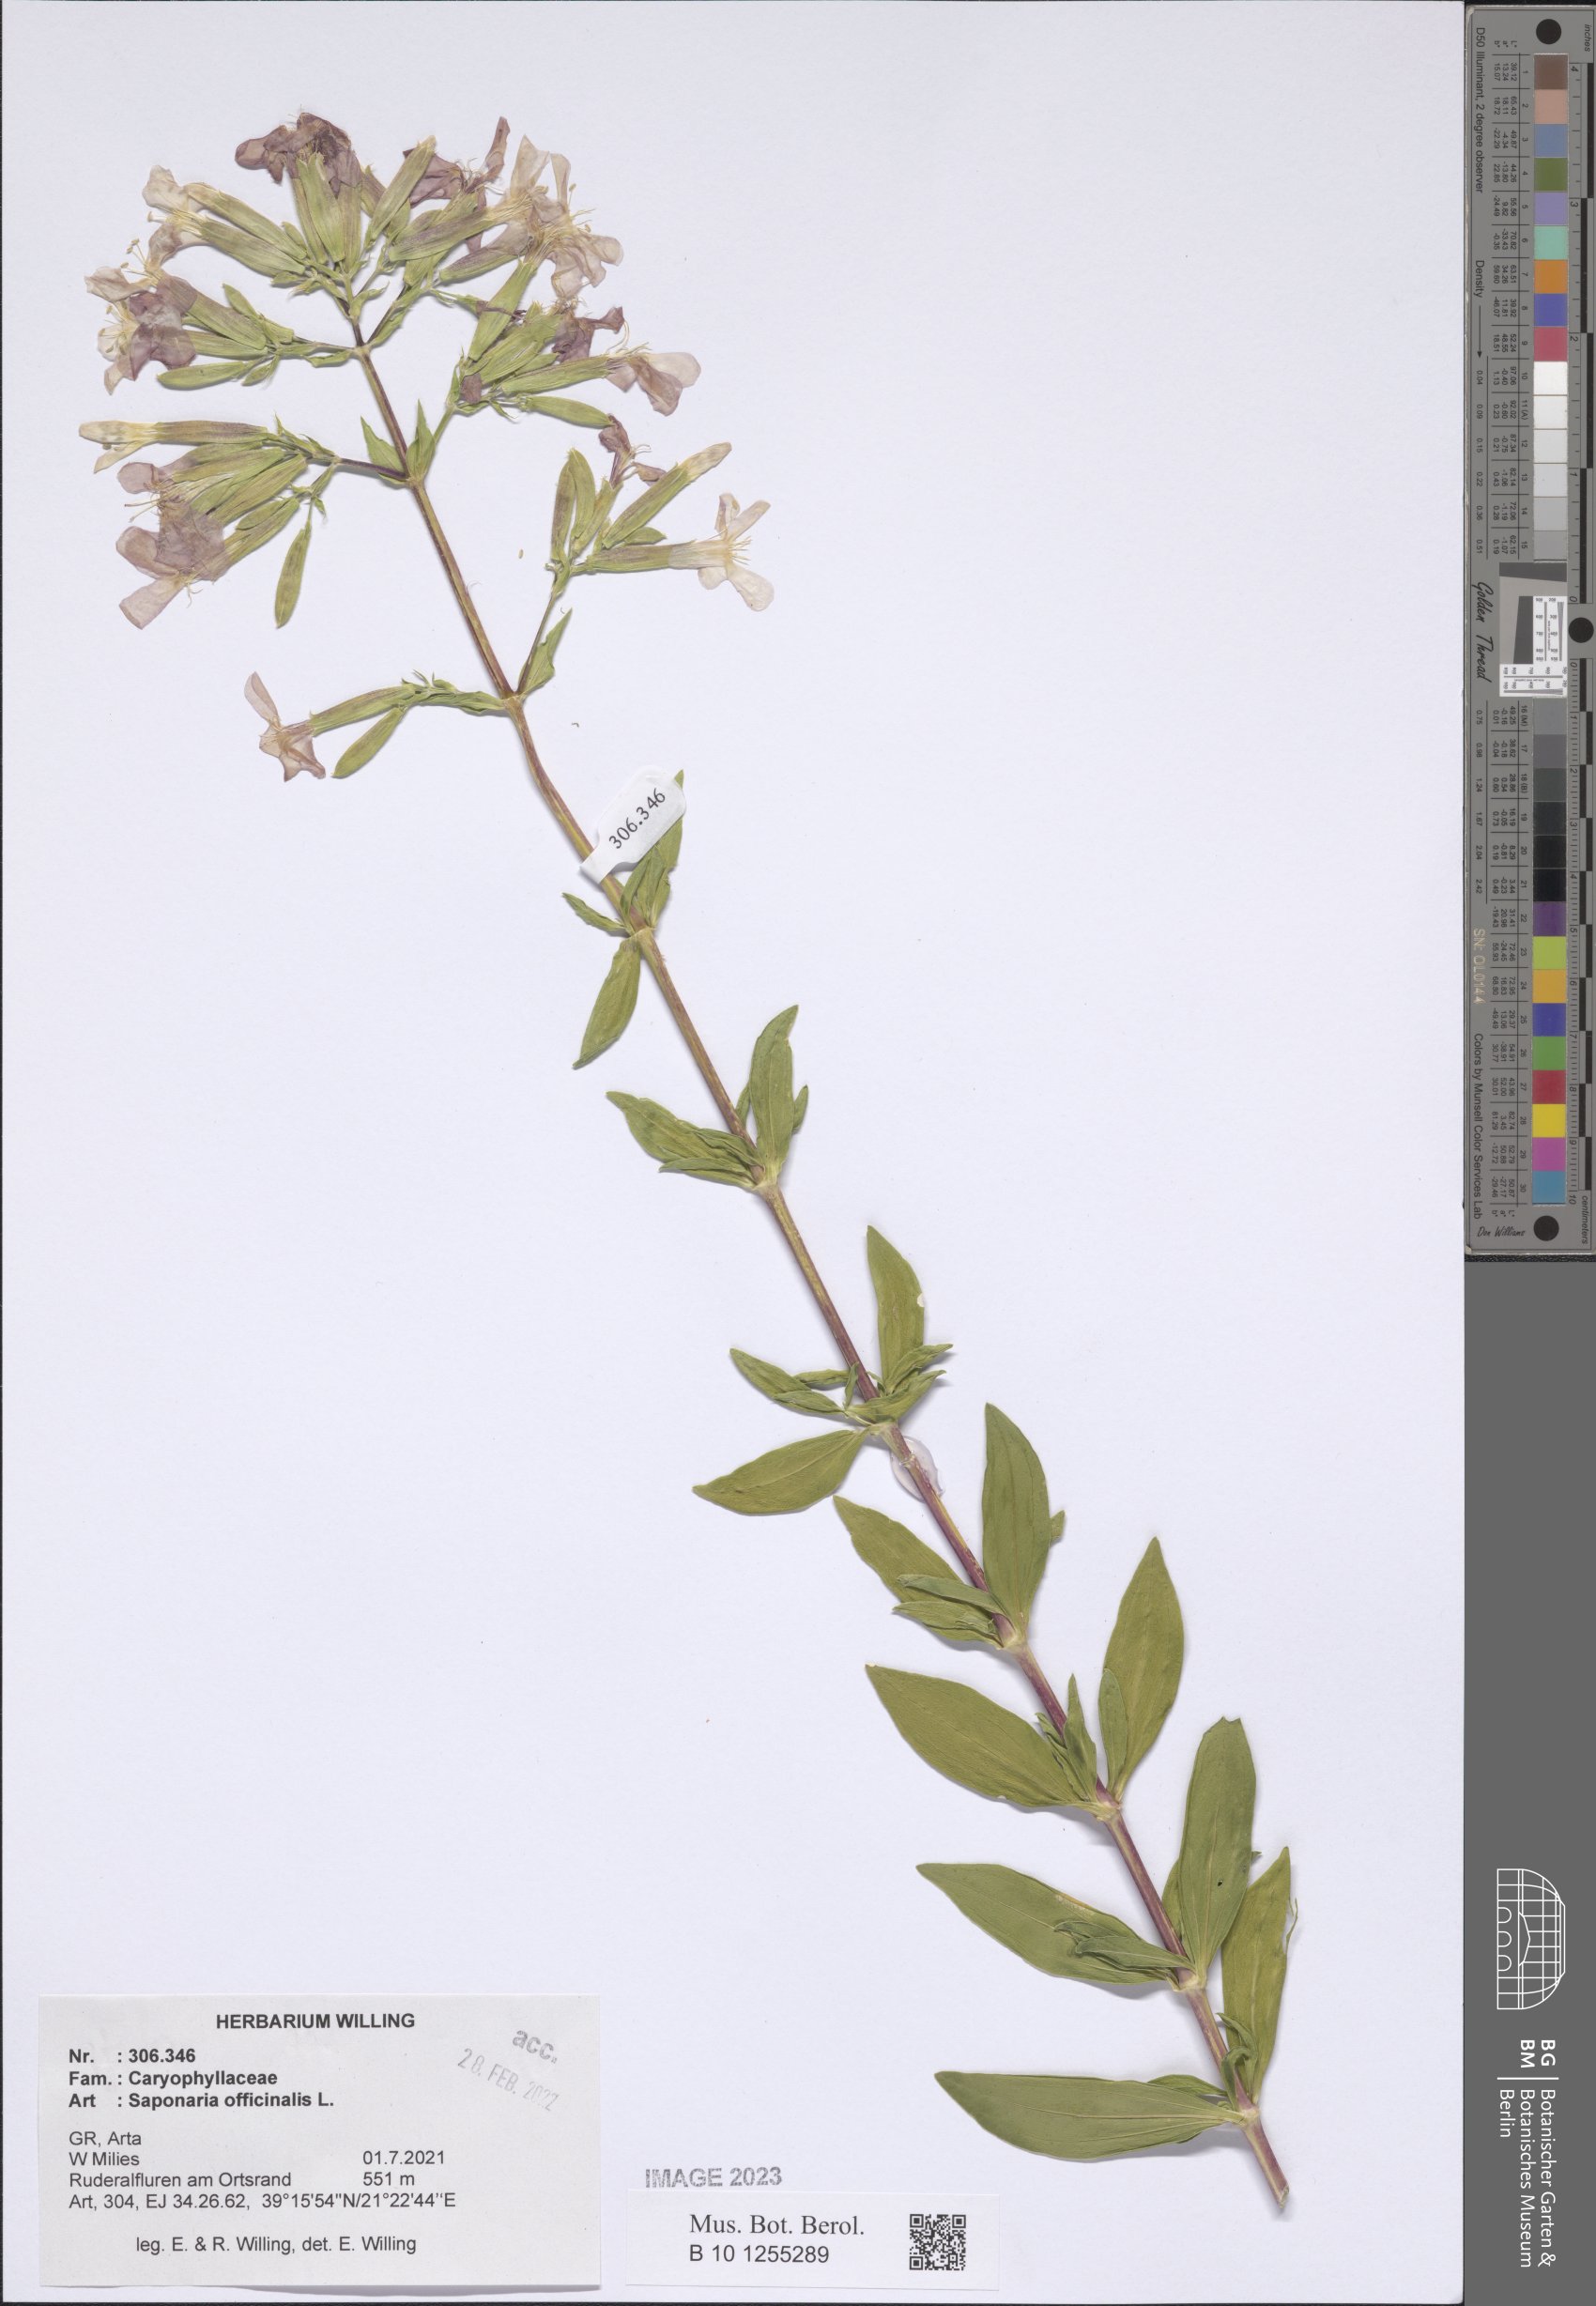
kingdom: Plantae
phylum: Tracheophyta
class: Magnoliopsida
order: Caryophyllales
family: Caryophyllaceae
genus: Saponaria
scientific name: Saponaria officinalis
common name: Soapwort
